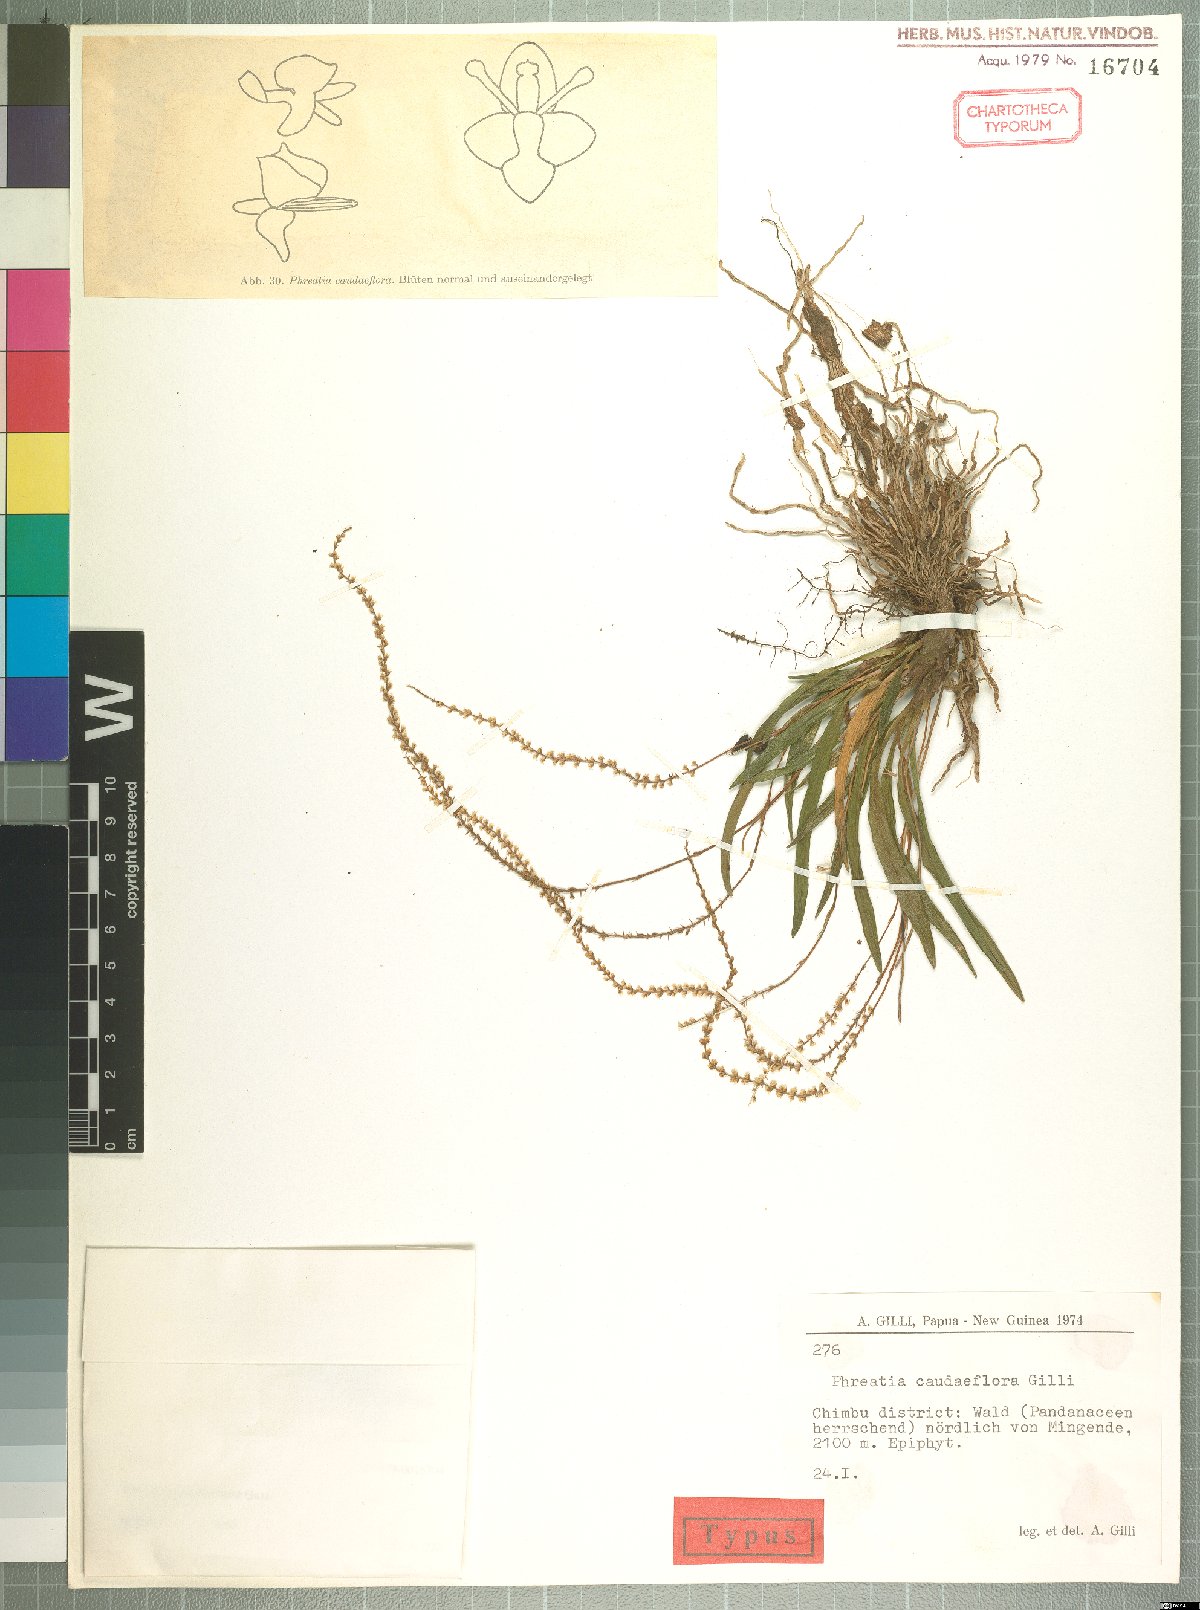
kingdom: Plantae
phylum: Tracheophyta
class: Liliopsida
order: Asparagales
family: Orchidaceae
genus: Phreatia
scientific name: Phreatia caudiflora
